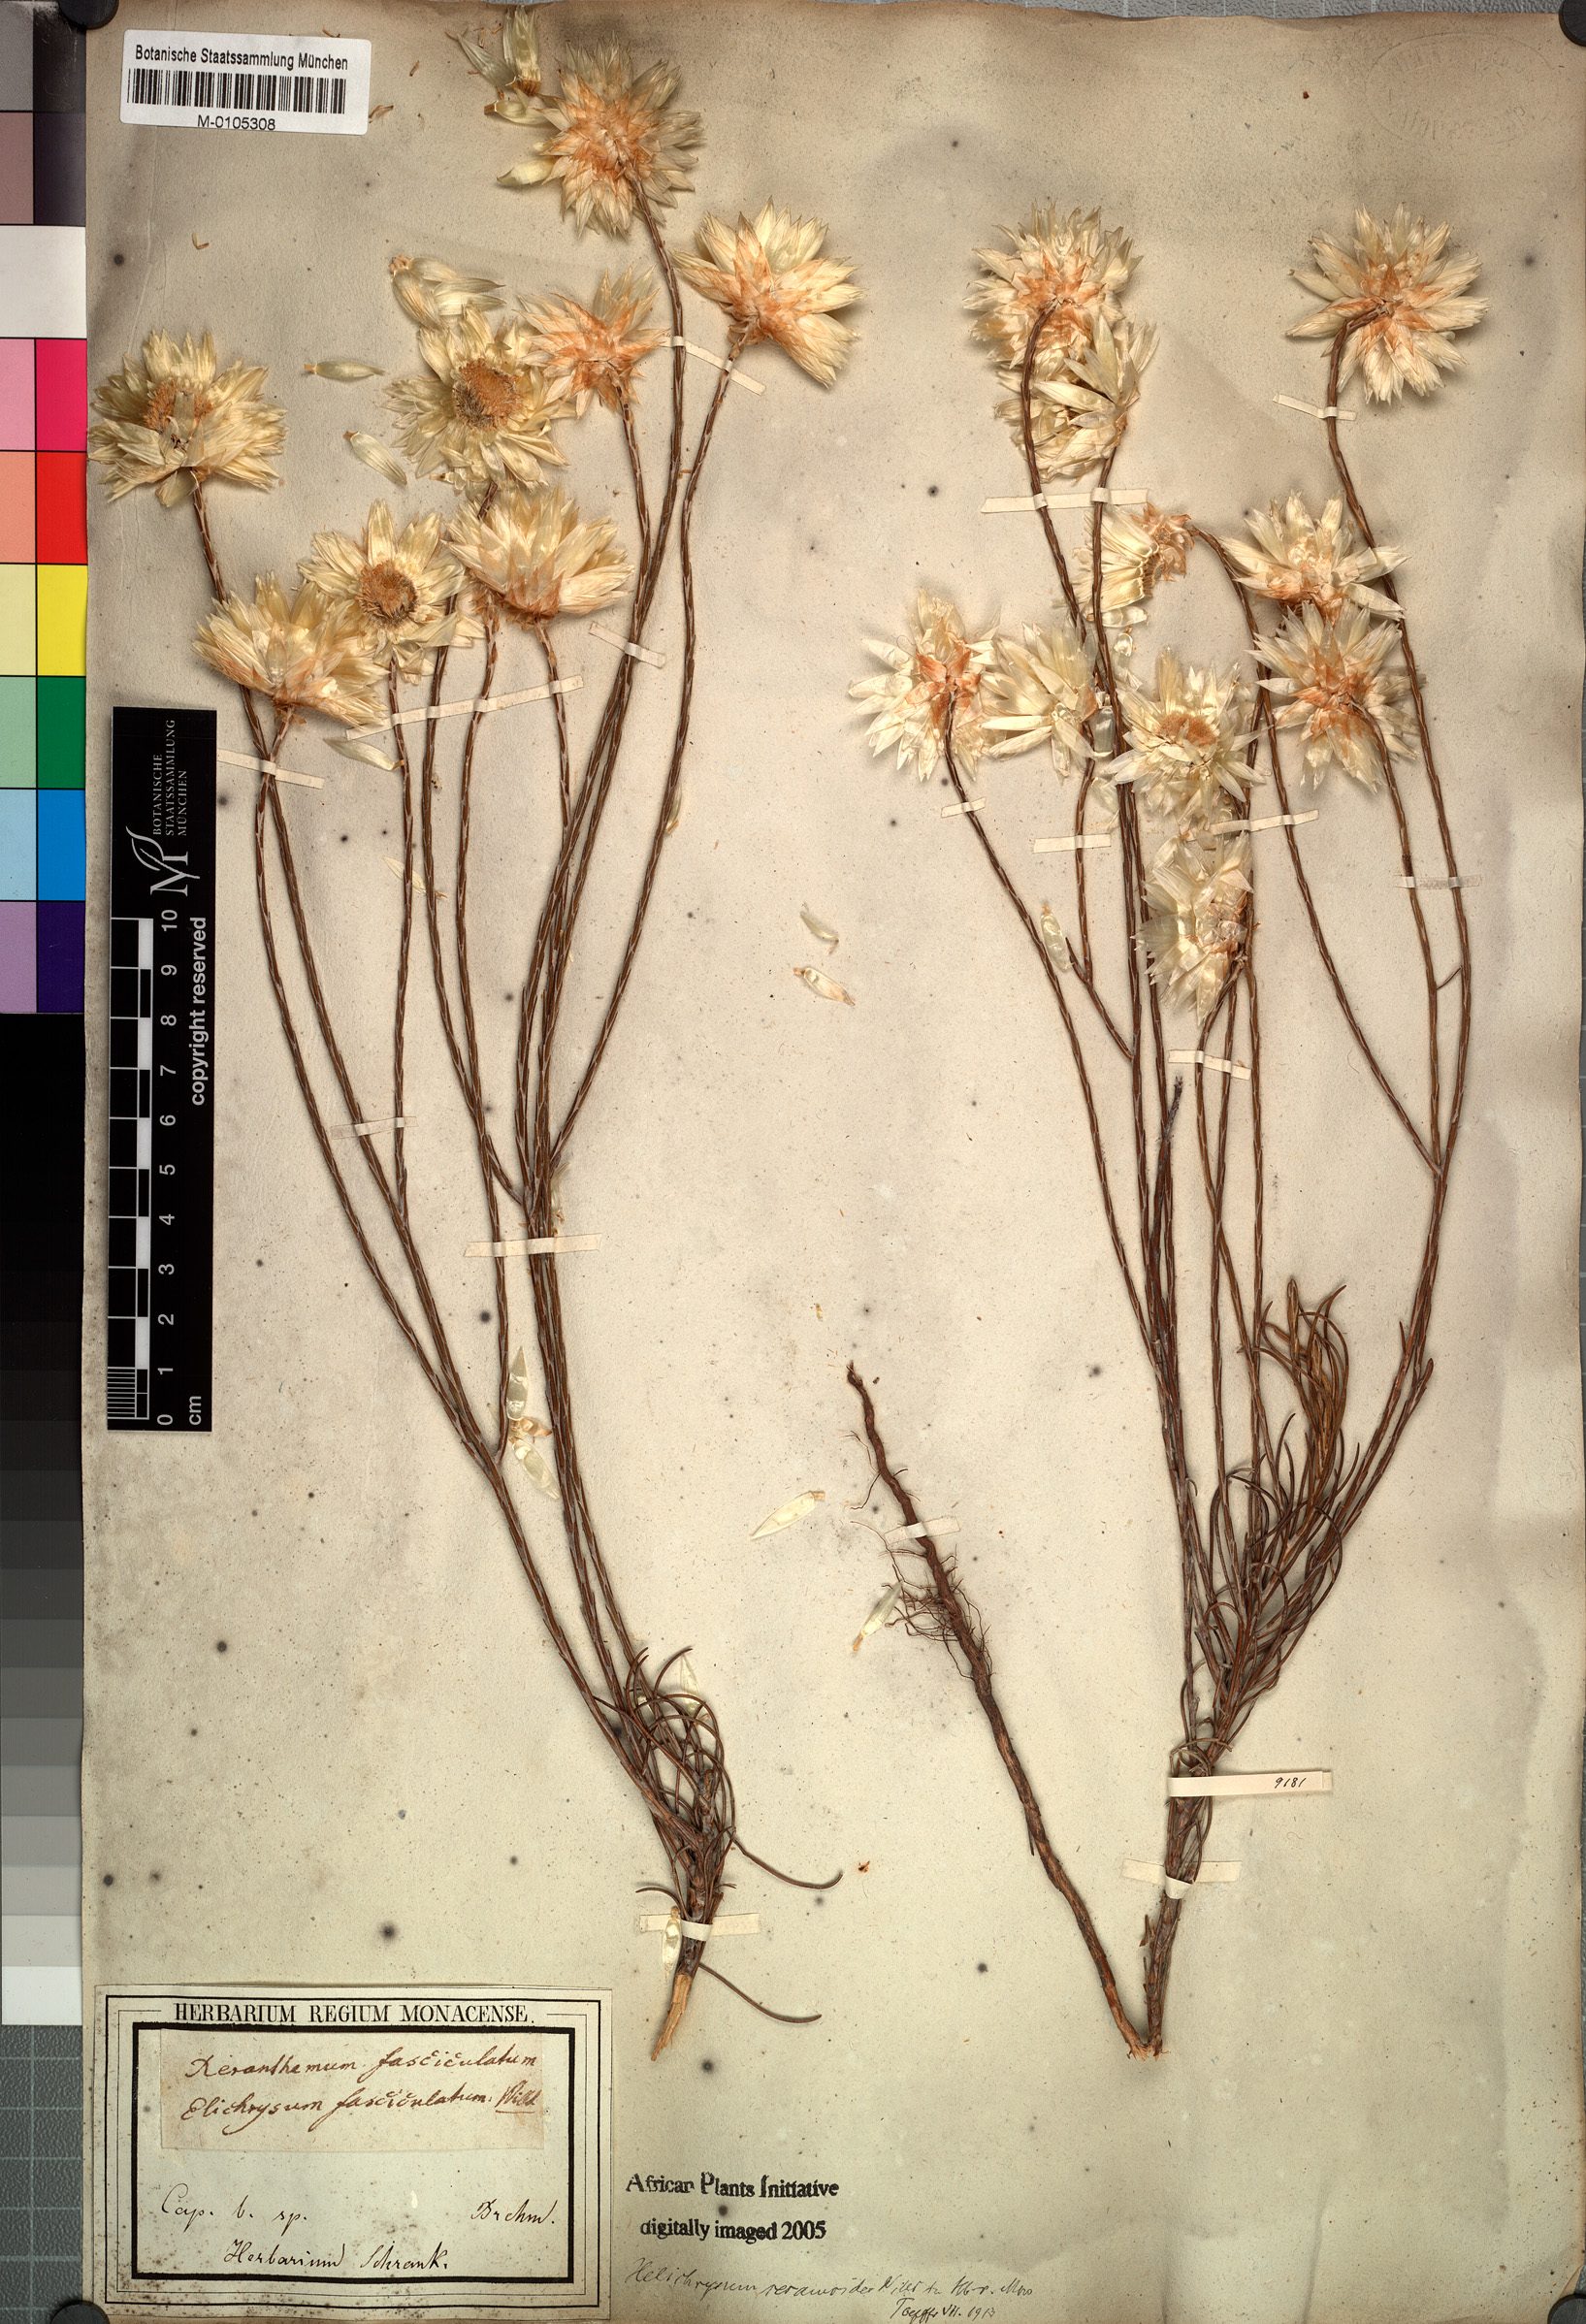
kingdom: Plantae
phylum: Tracheophyta
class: Magnoliopsida
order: Asterales
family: Asteraceae
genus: Edmondia
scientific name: Edmondia sesamoides
